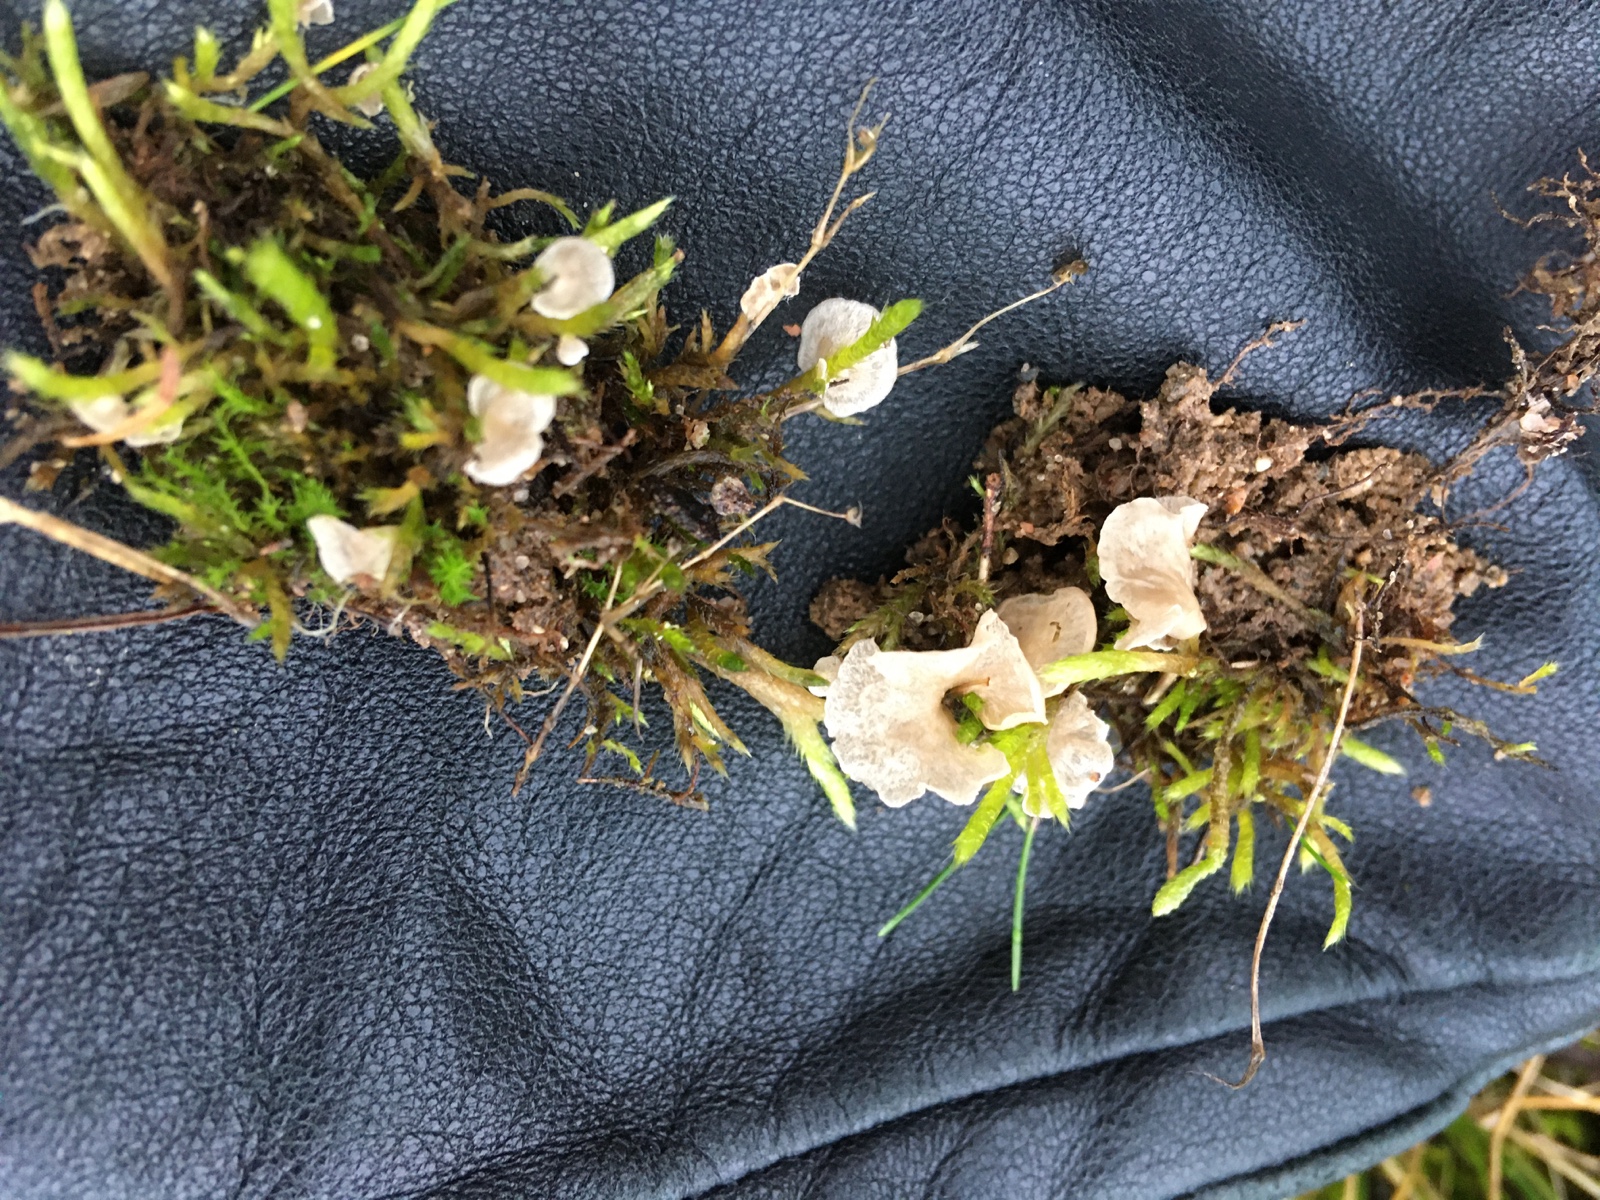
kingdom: Fungi
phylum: Basidiomycota
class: Agaricomycetes
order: Agaricales
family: Hygrophoraceae
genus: Arrhenia
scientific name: Arrhenia retiruga
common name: lille fontænehat
